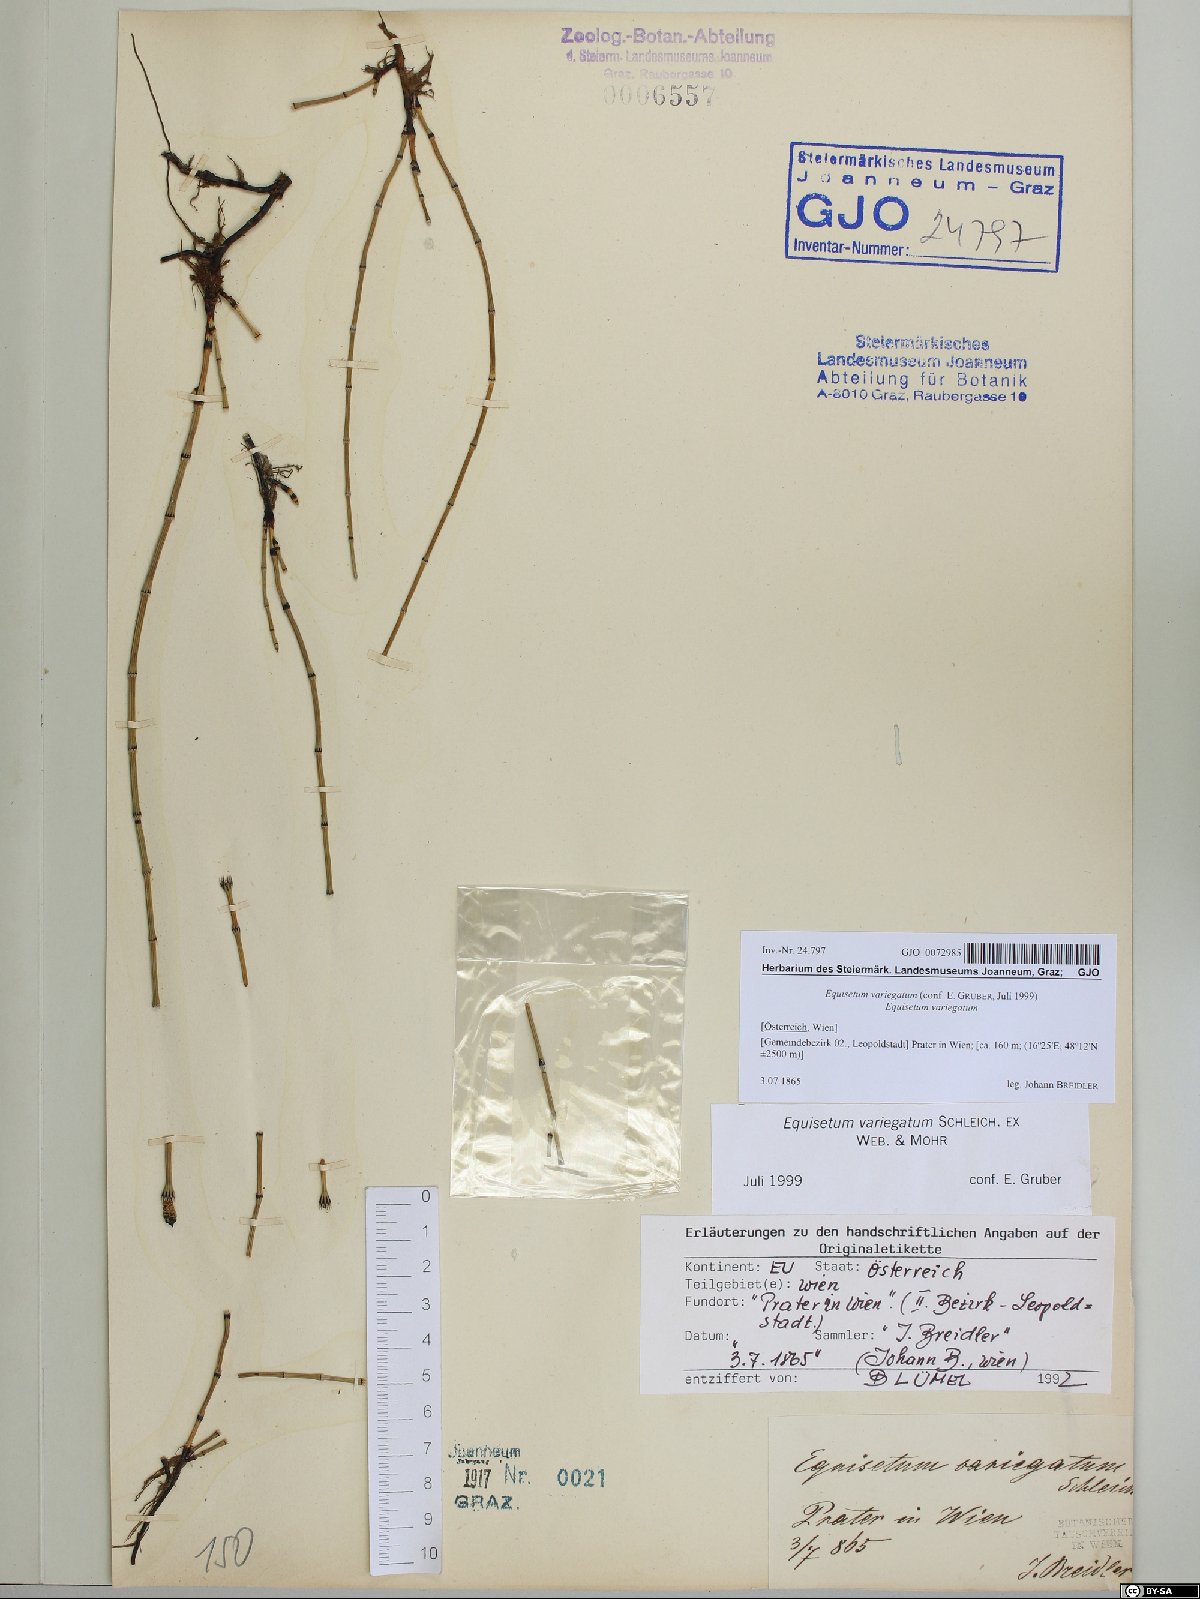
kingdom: Plantae
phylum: Tracheophyta
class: Polypodiopsida
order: Equisetales
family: Equisetaceae
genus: Equisetum
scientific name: Equisetum variegatum
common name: Variegated horsetail
